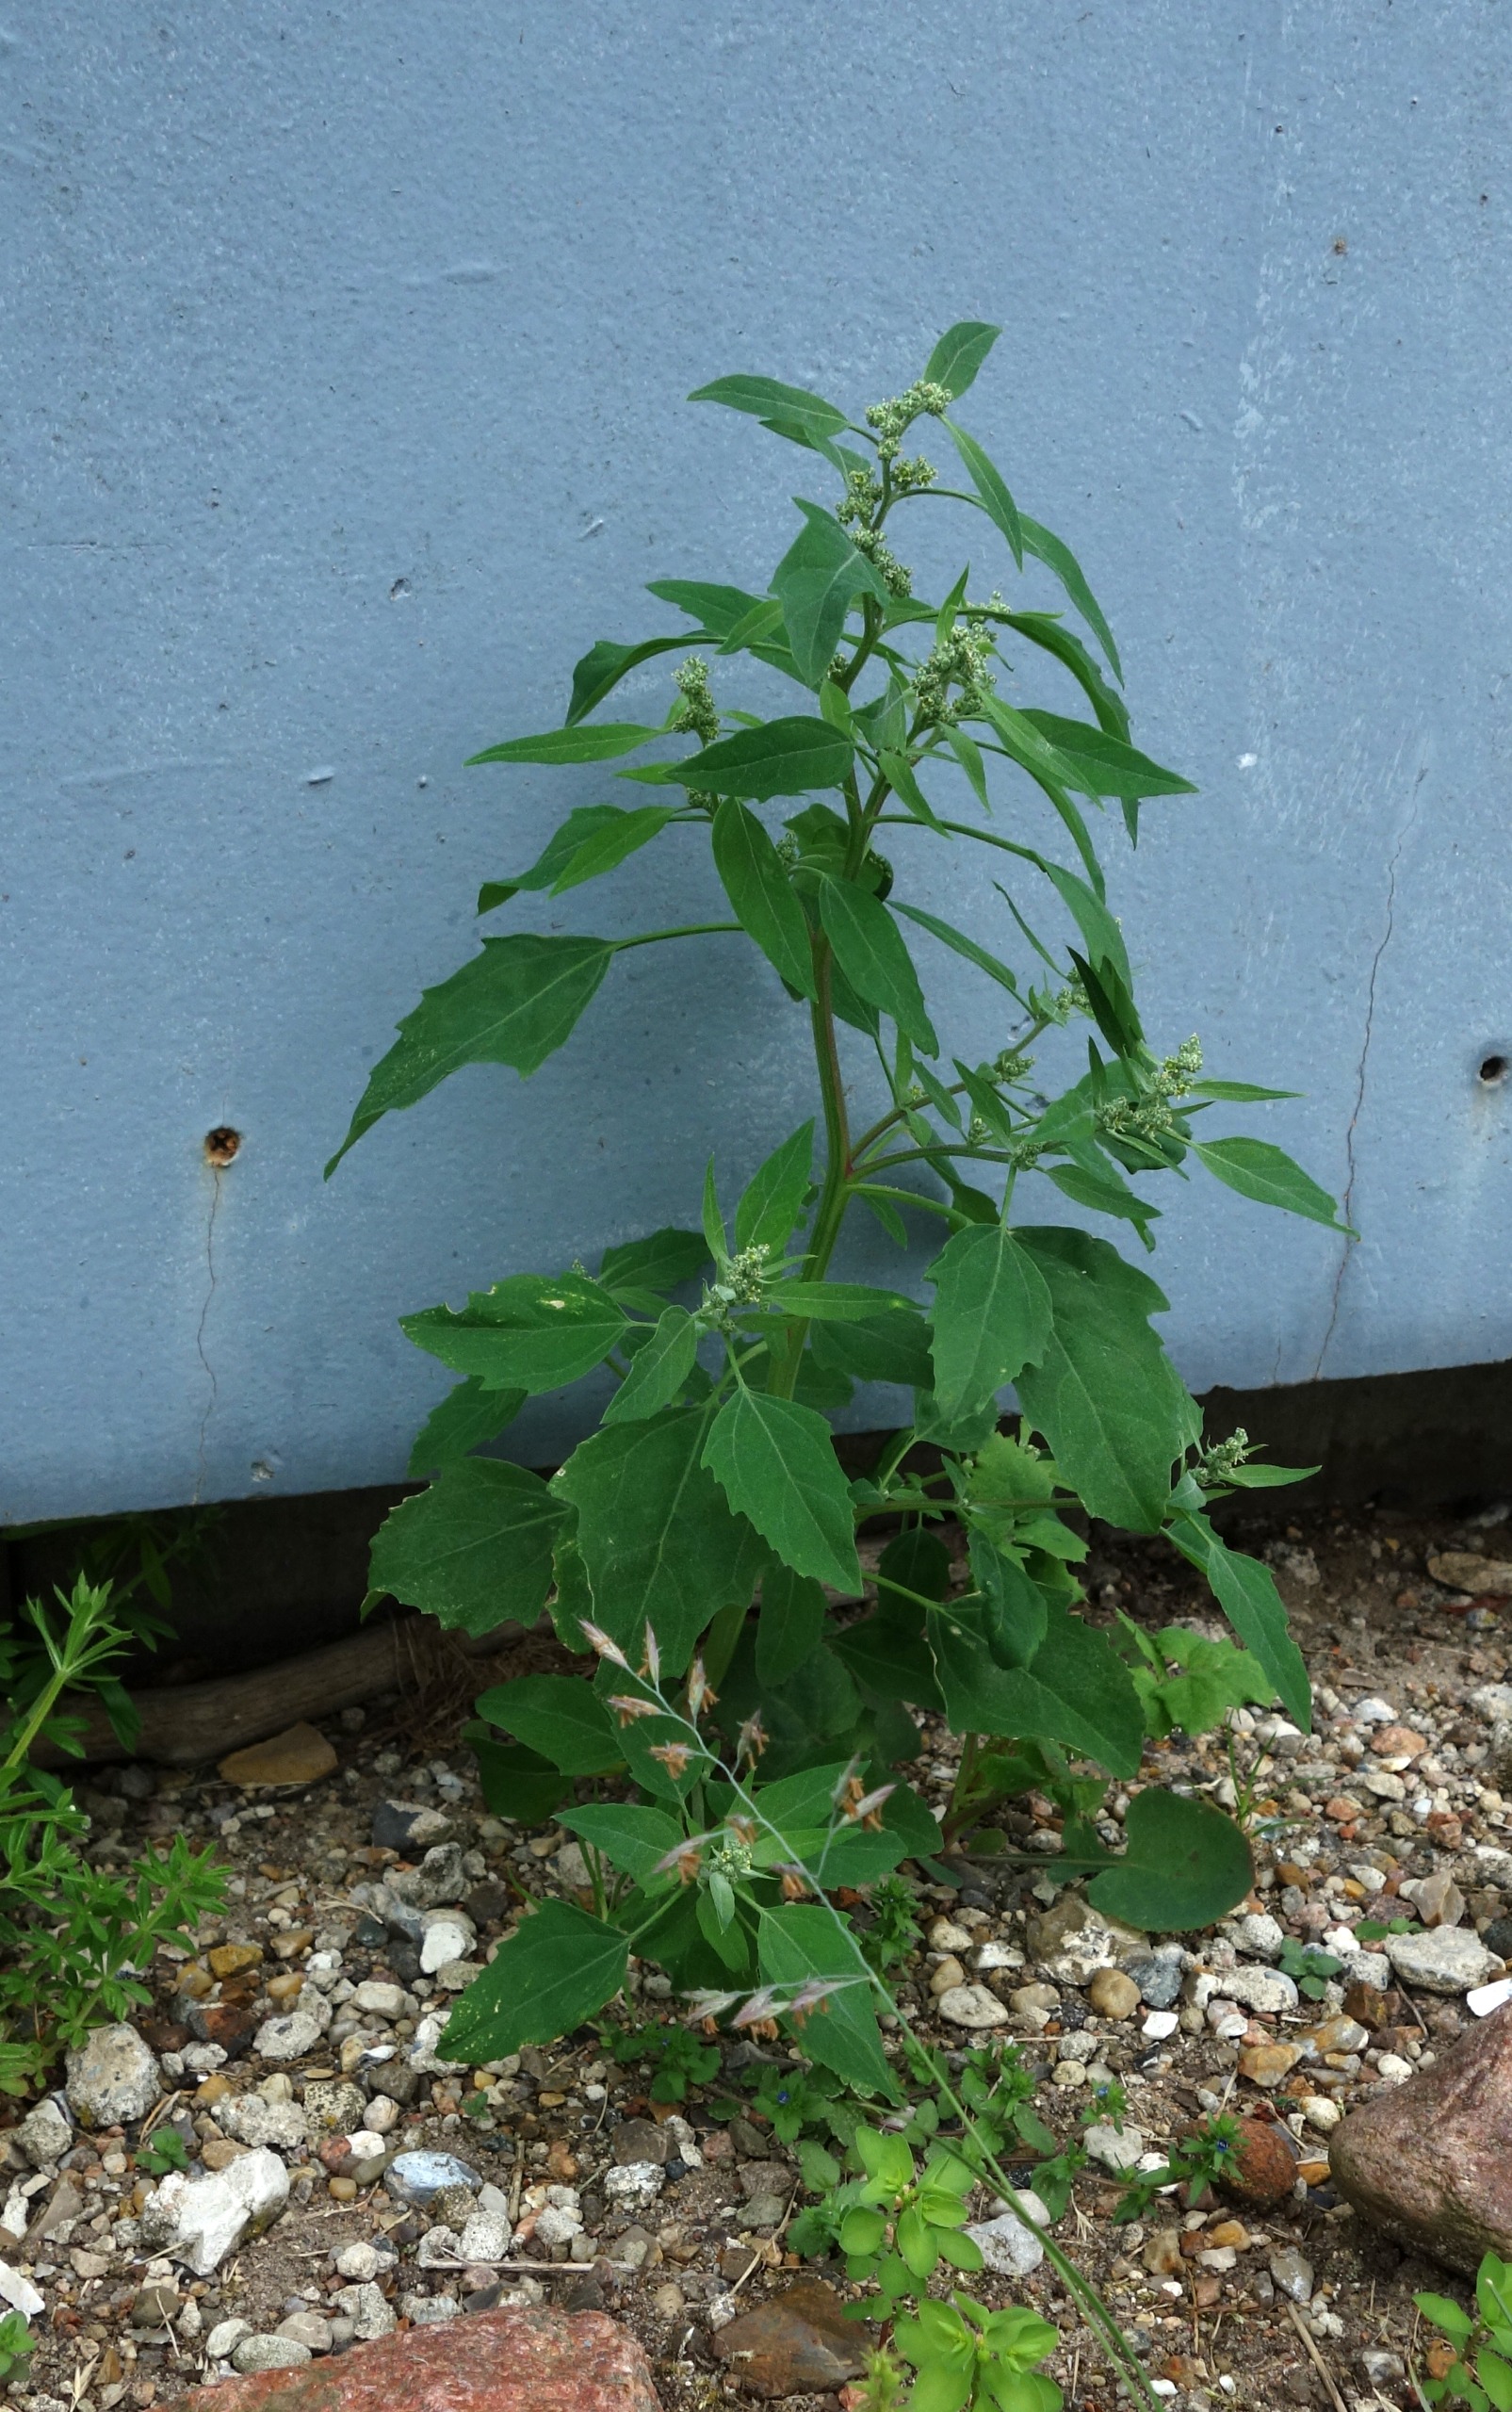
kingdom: Plantae
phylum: Tracheophyta
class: Magnoliopsida
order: Caryophyllales
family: Amaranthaceae
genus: Chenopodium
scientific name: Chenopodium album
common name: Hvidmelet gåsefod
